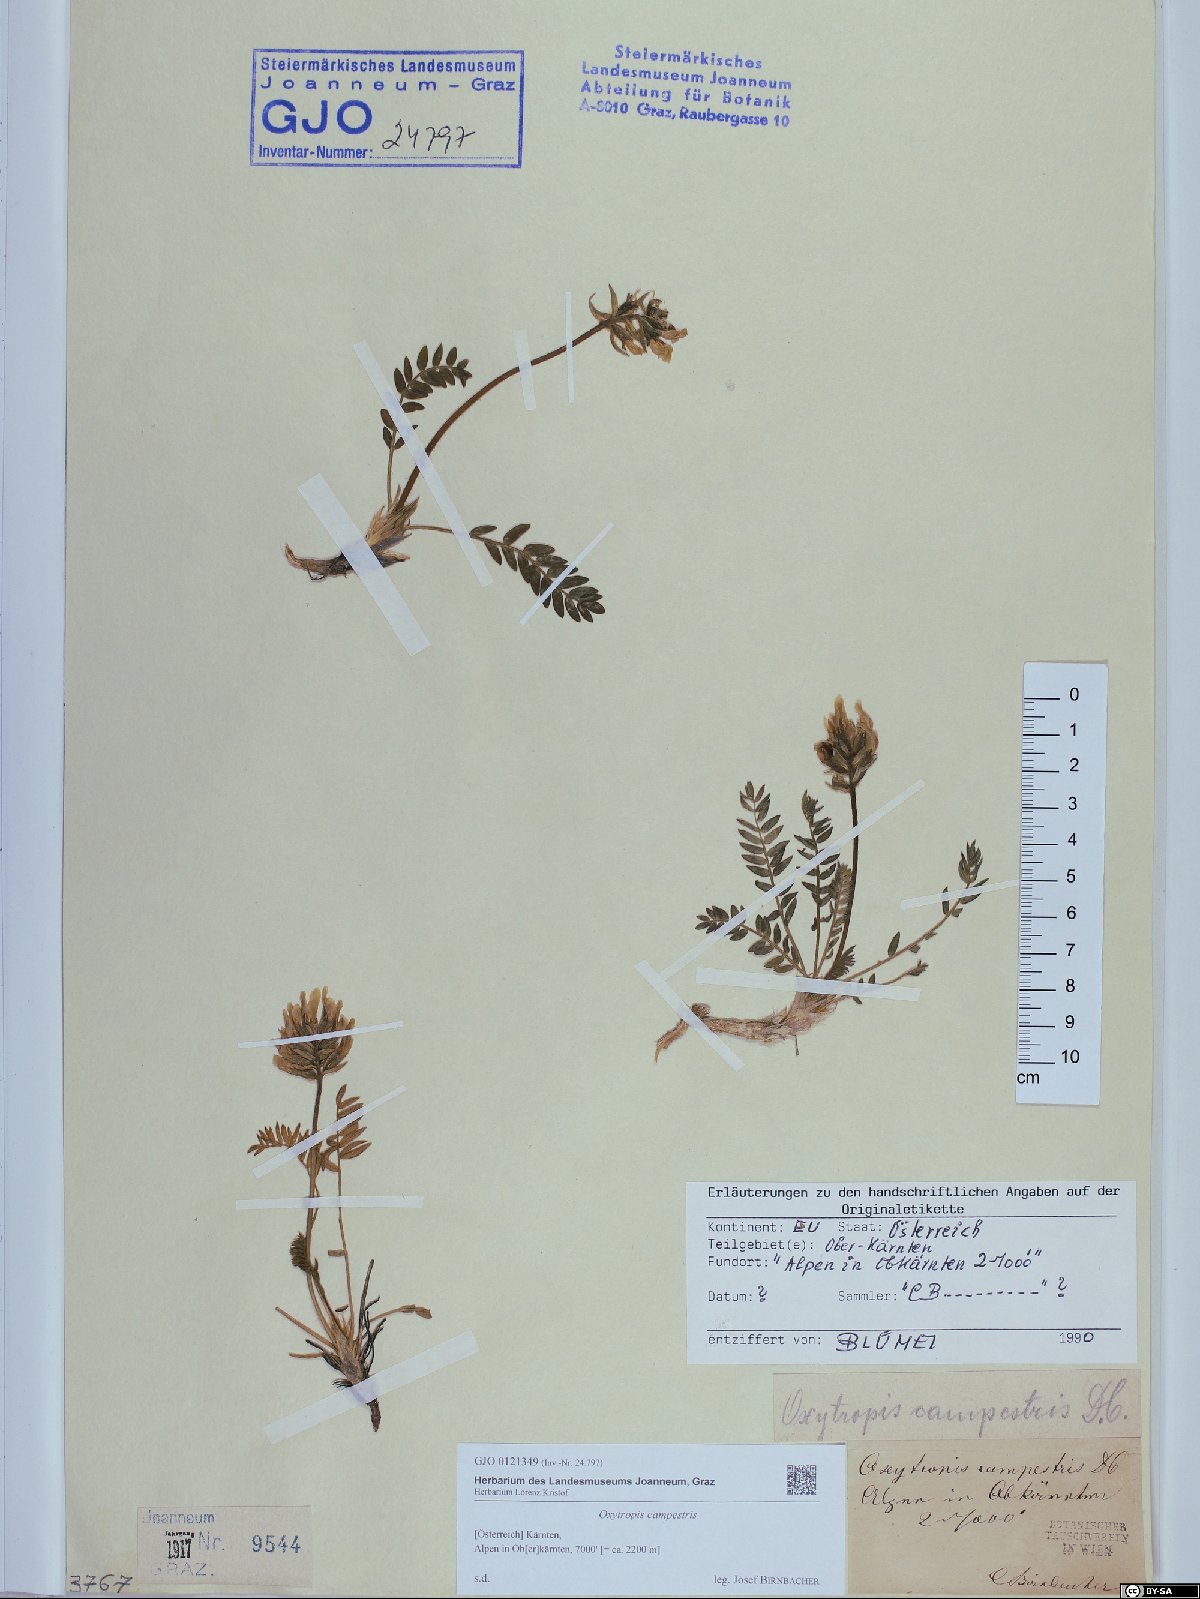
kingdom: Plantae
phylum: Tracheophyta
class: Magnoliopsida
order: Fabales
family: Fabaceae
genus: Oxytropis
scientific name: Oxytropis campestris
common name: Field locoweed
